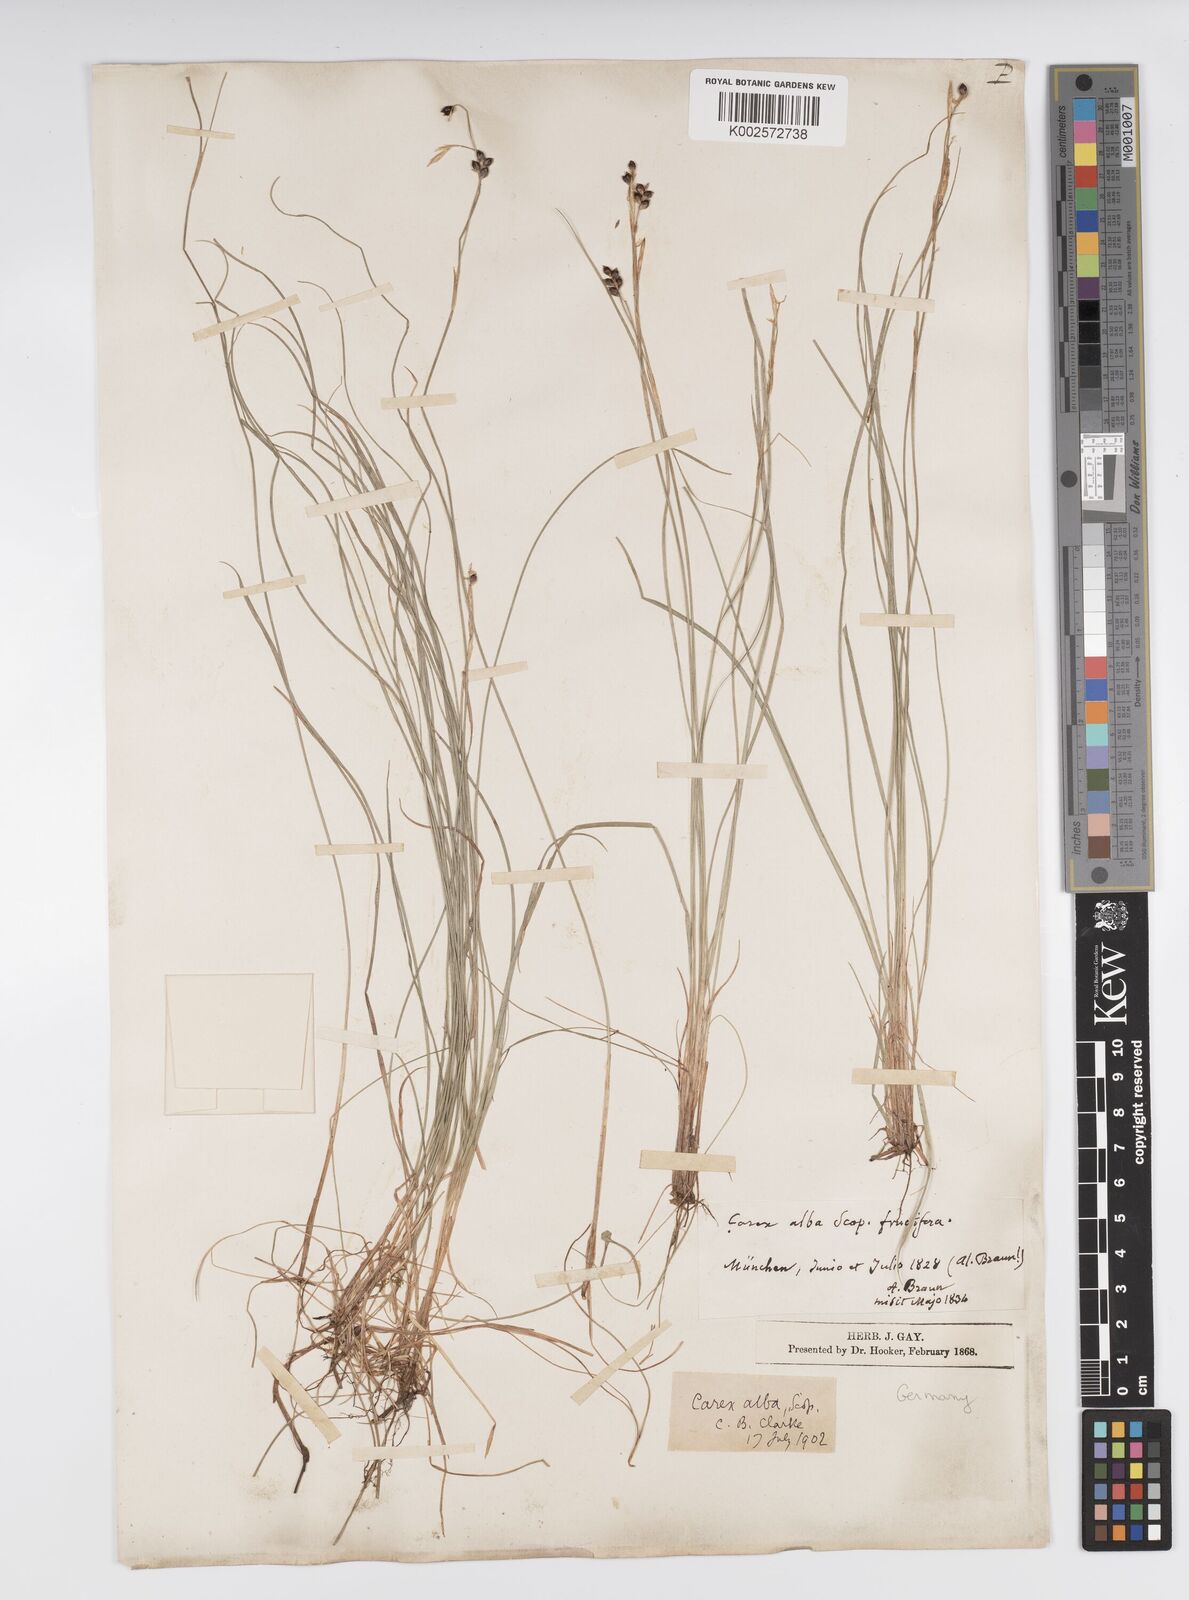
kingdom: Plantae
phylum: Tracheophyta
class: Liliopsida
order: Poales
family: Cyperaceae
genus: Carex
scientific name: Carex alba
